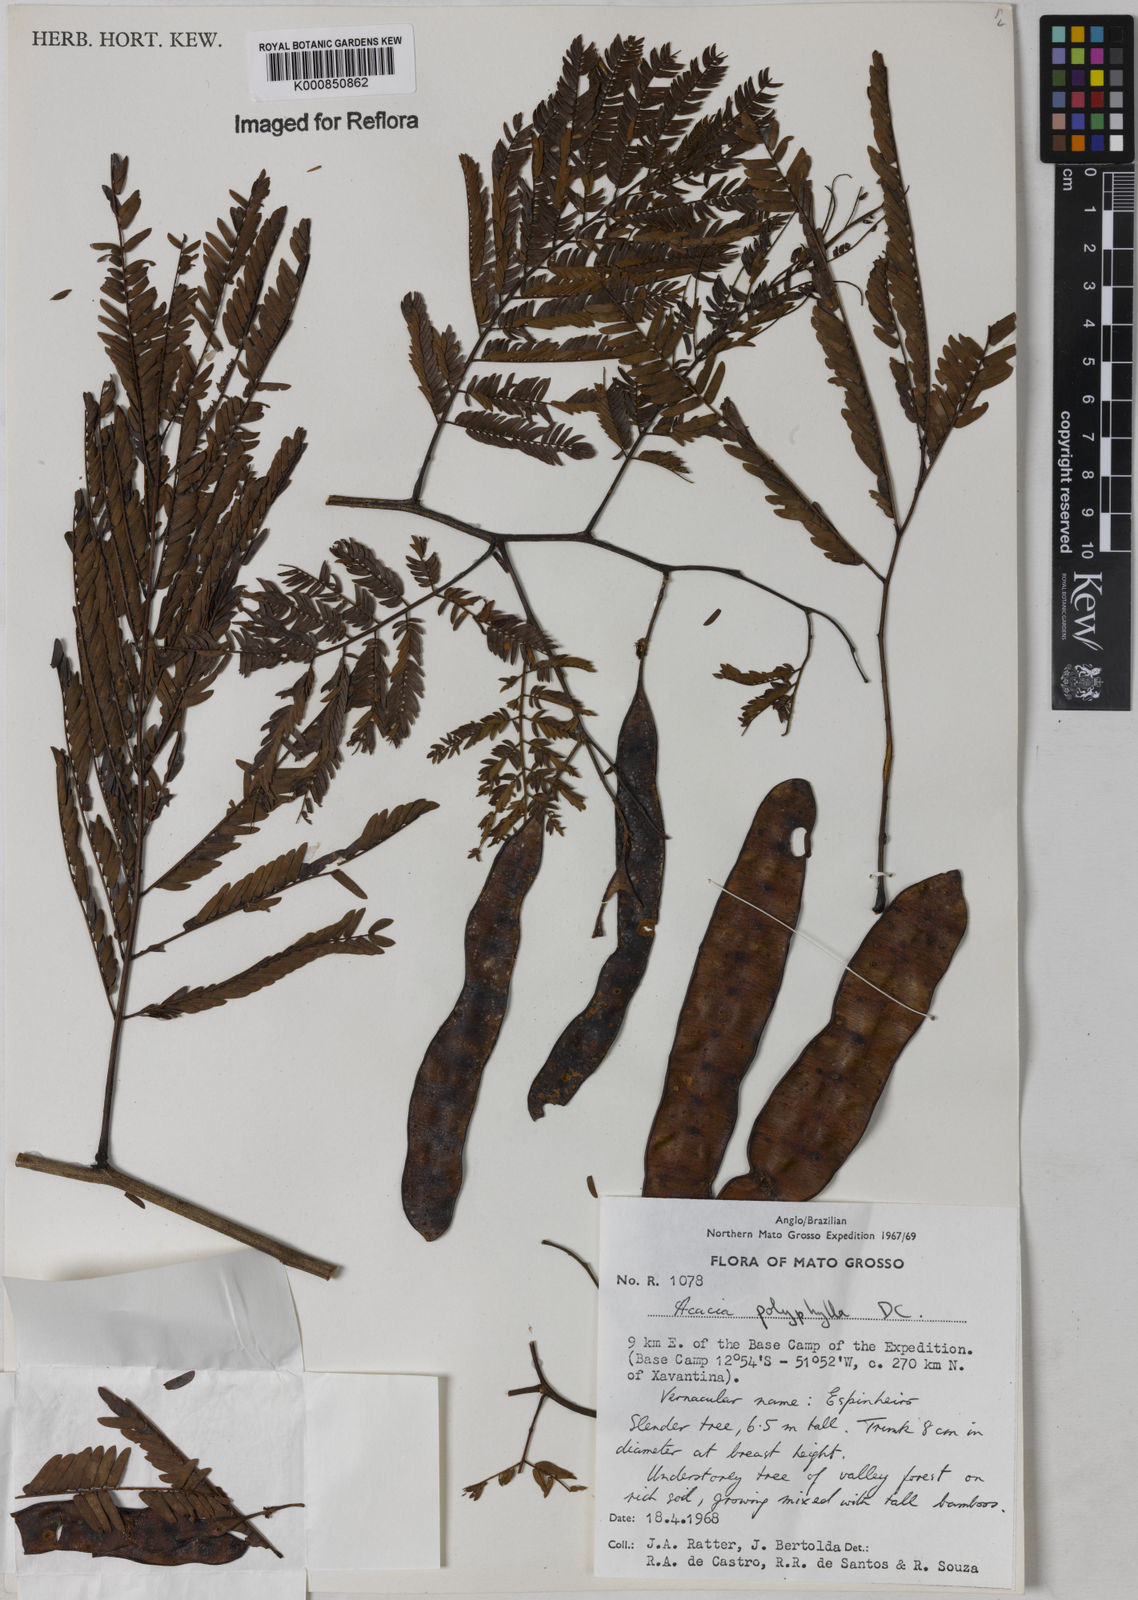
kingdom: Plantae
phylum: Tracheophyta
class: Magnoliopsida
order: Fabales
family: Fabaceae
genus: Senegalia
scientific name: Senegalia polyphylla
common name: White-tamarind
